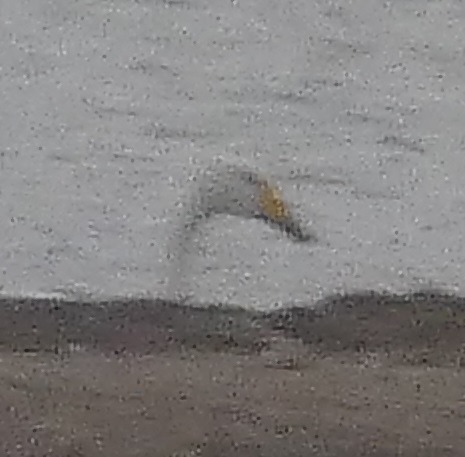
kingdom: Animalia
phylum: Chordata
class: Aves
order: Anseriformes
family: Anatidae
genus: Cygnus
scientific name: Cygnus cygnus
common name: Sangsvane
